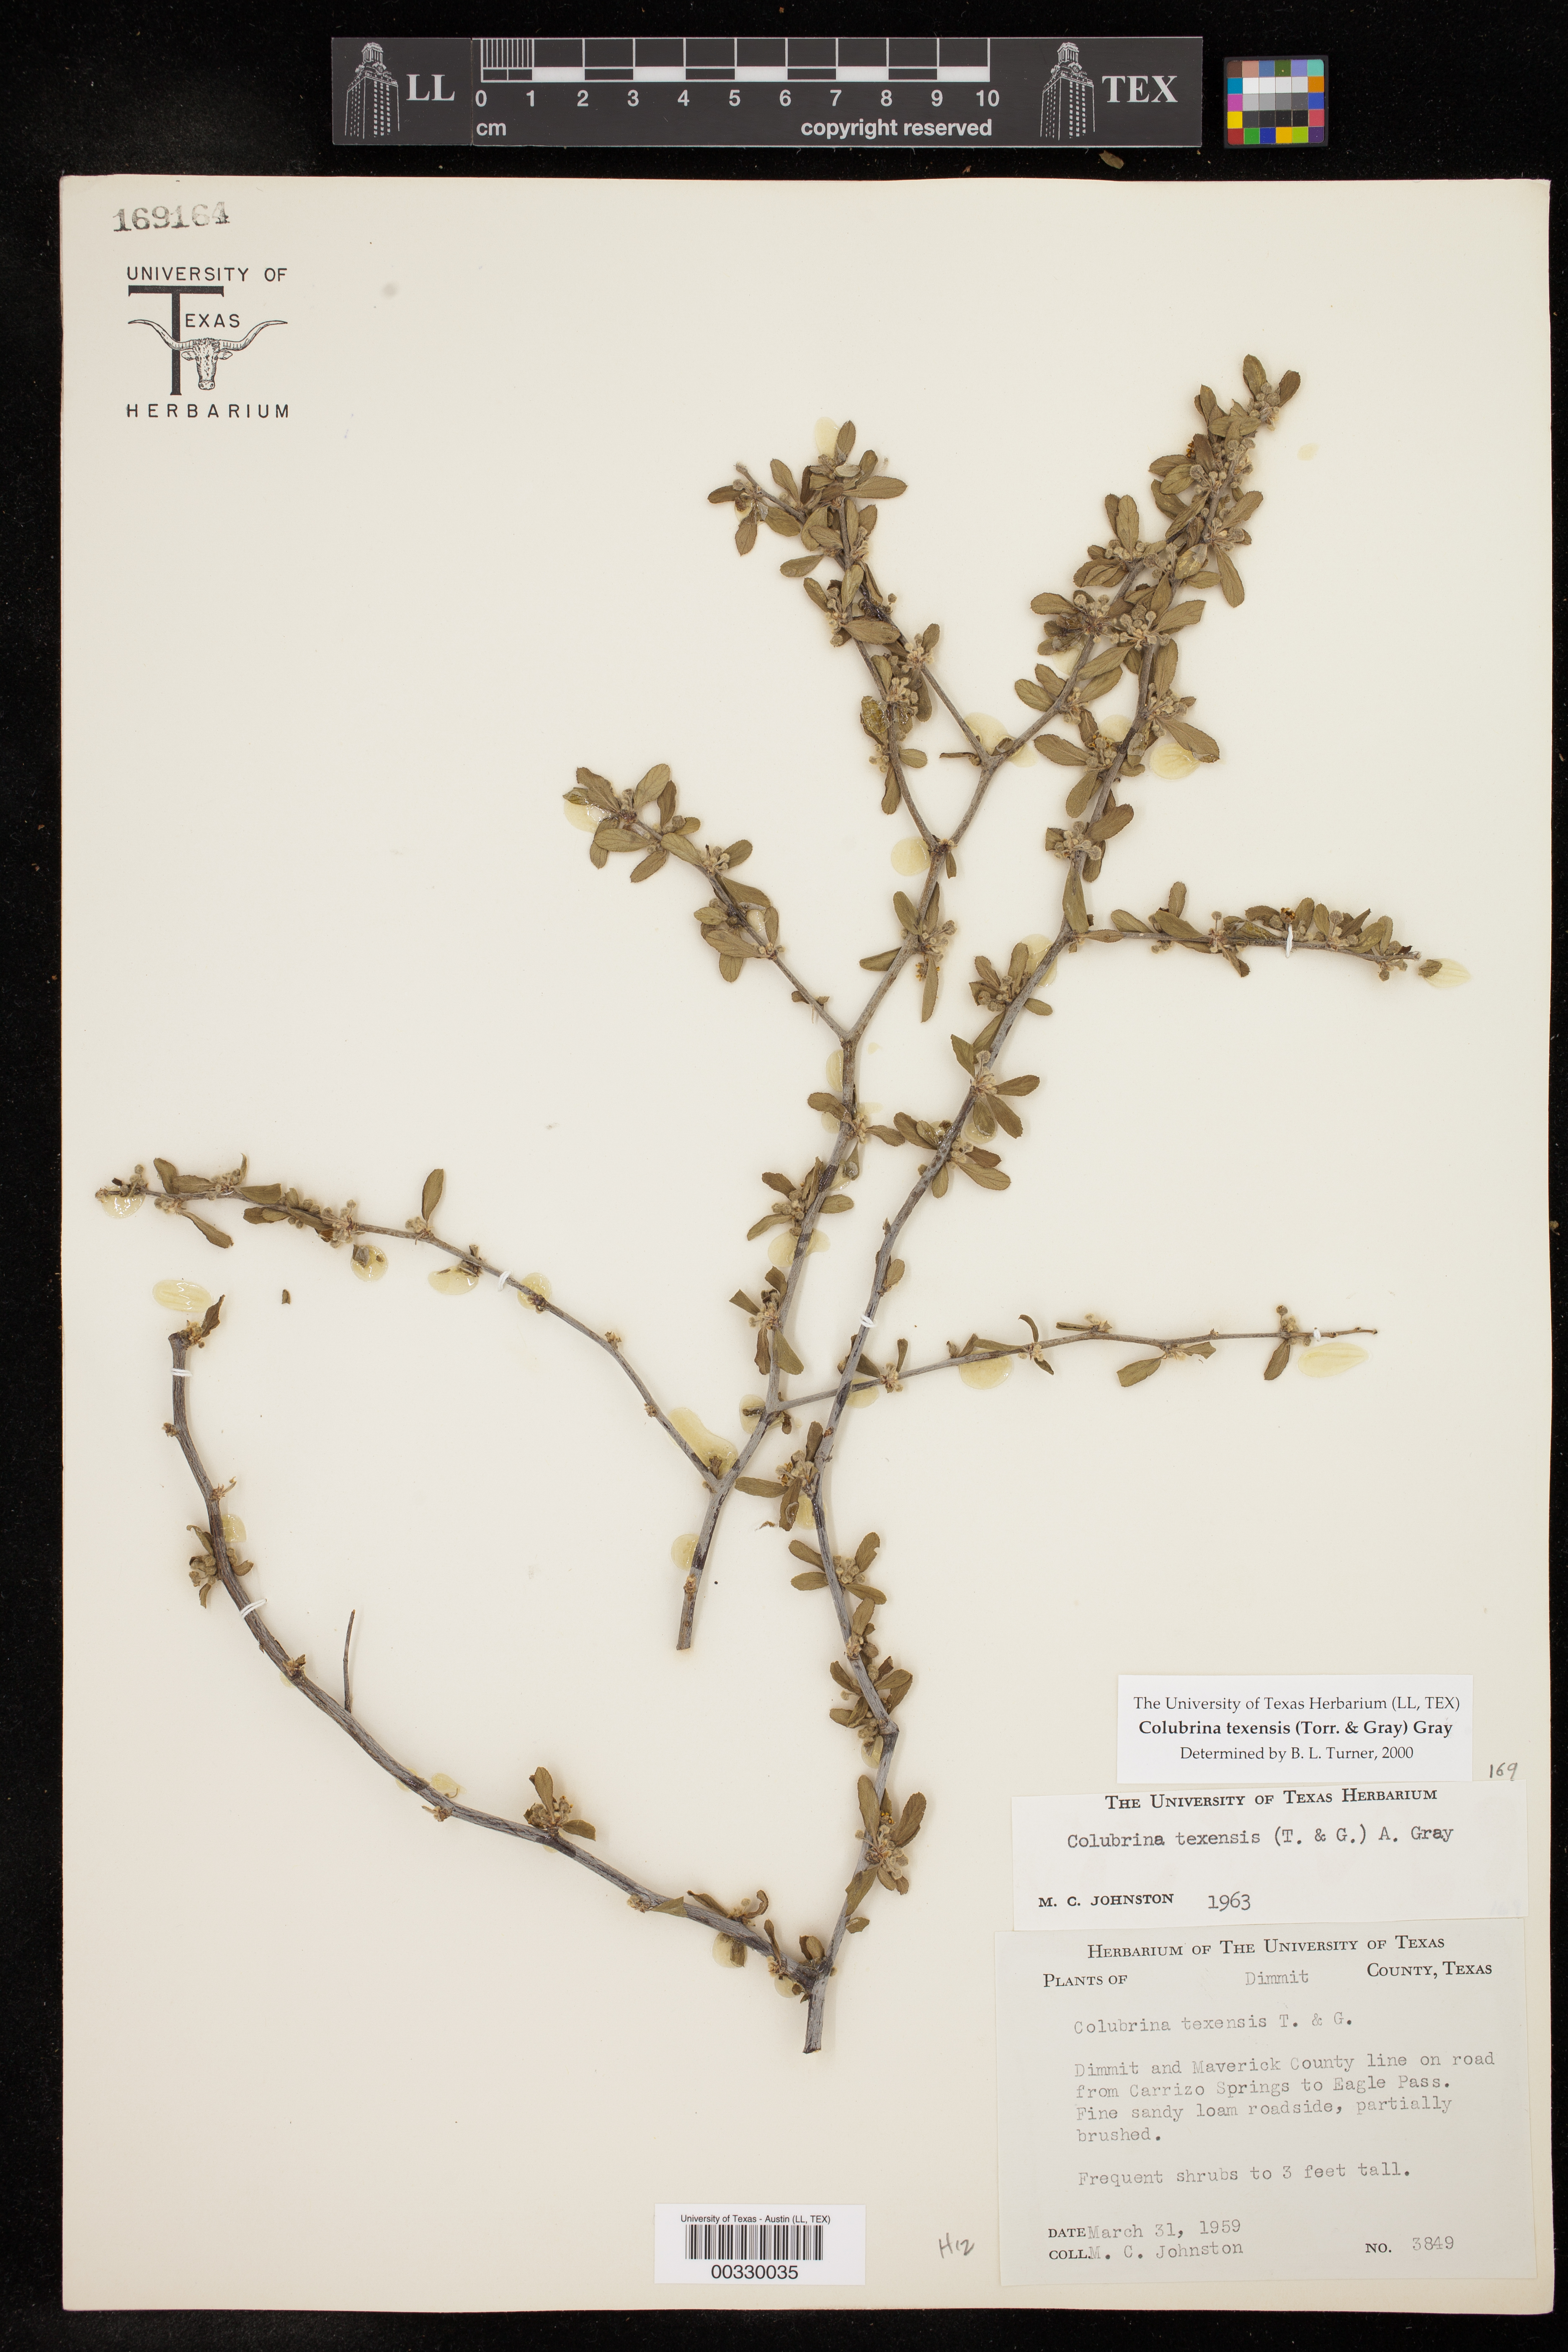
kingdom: Plantae
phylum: Tracheophyta
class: Magnoliopsida
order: Rosales
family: Rhamnaceae
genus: Colubrina
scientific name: Colubrina texensis
